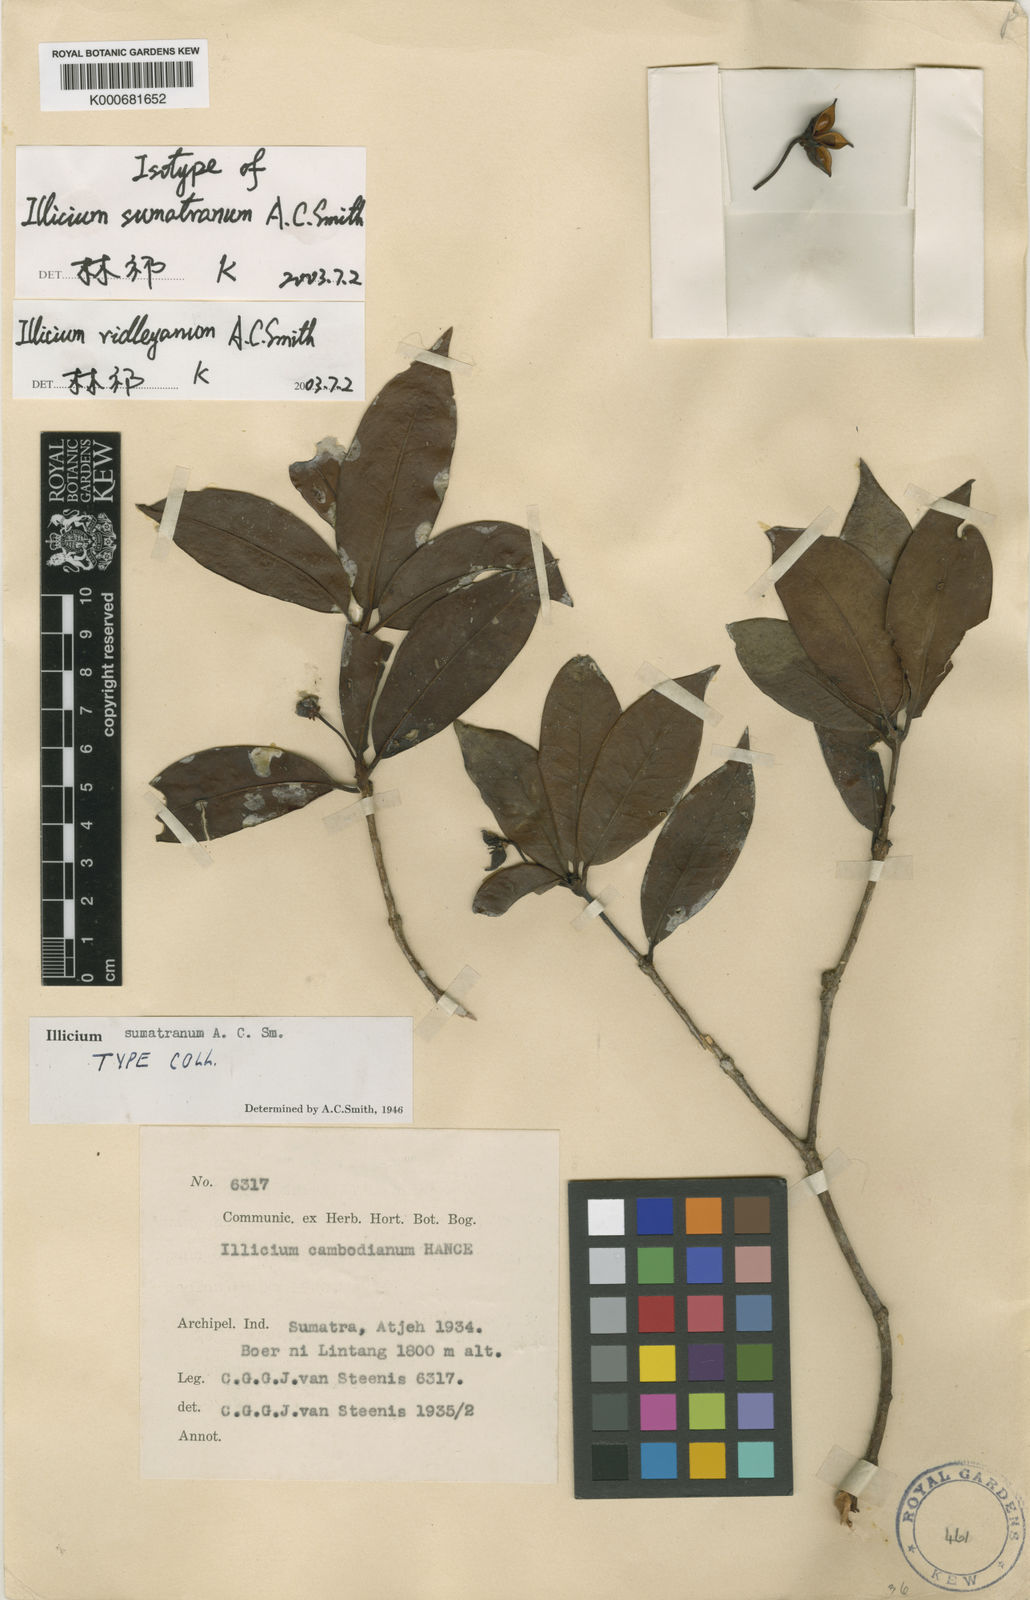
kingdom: Plantae
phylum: Tracheophyta
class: Magnoliopsida
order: Austrobaileyales
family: Schisandraceae
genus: Illicium
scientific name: Illicium sumatranum
